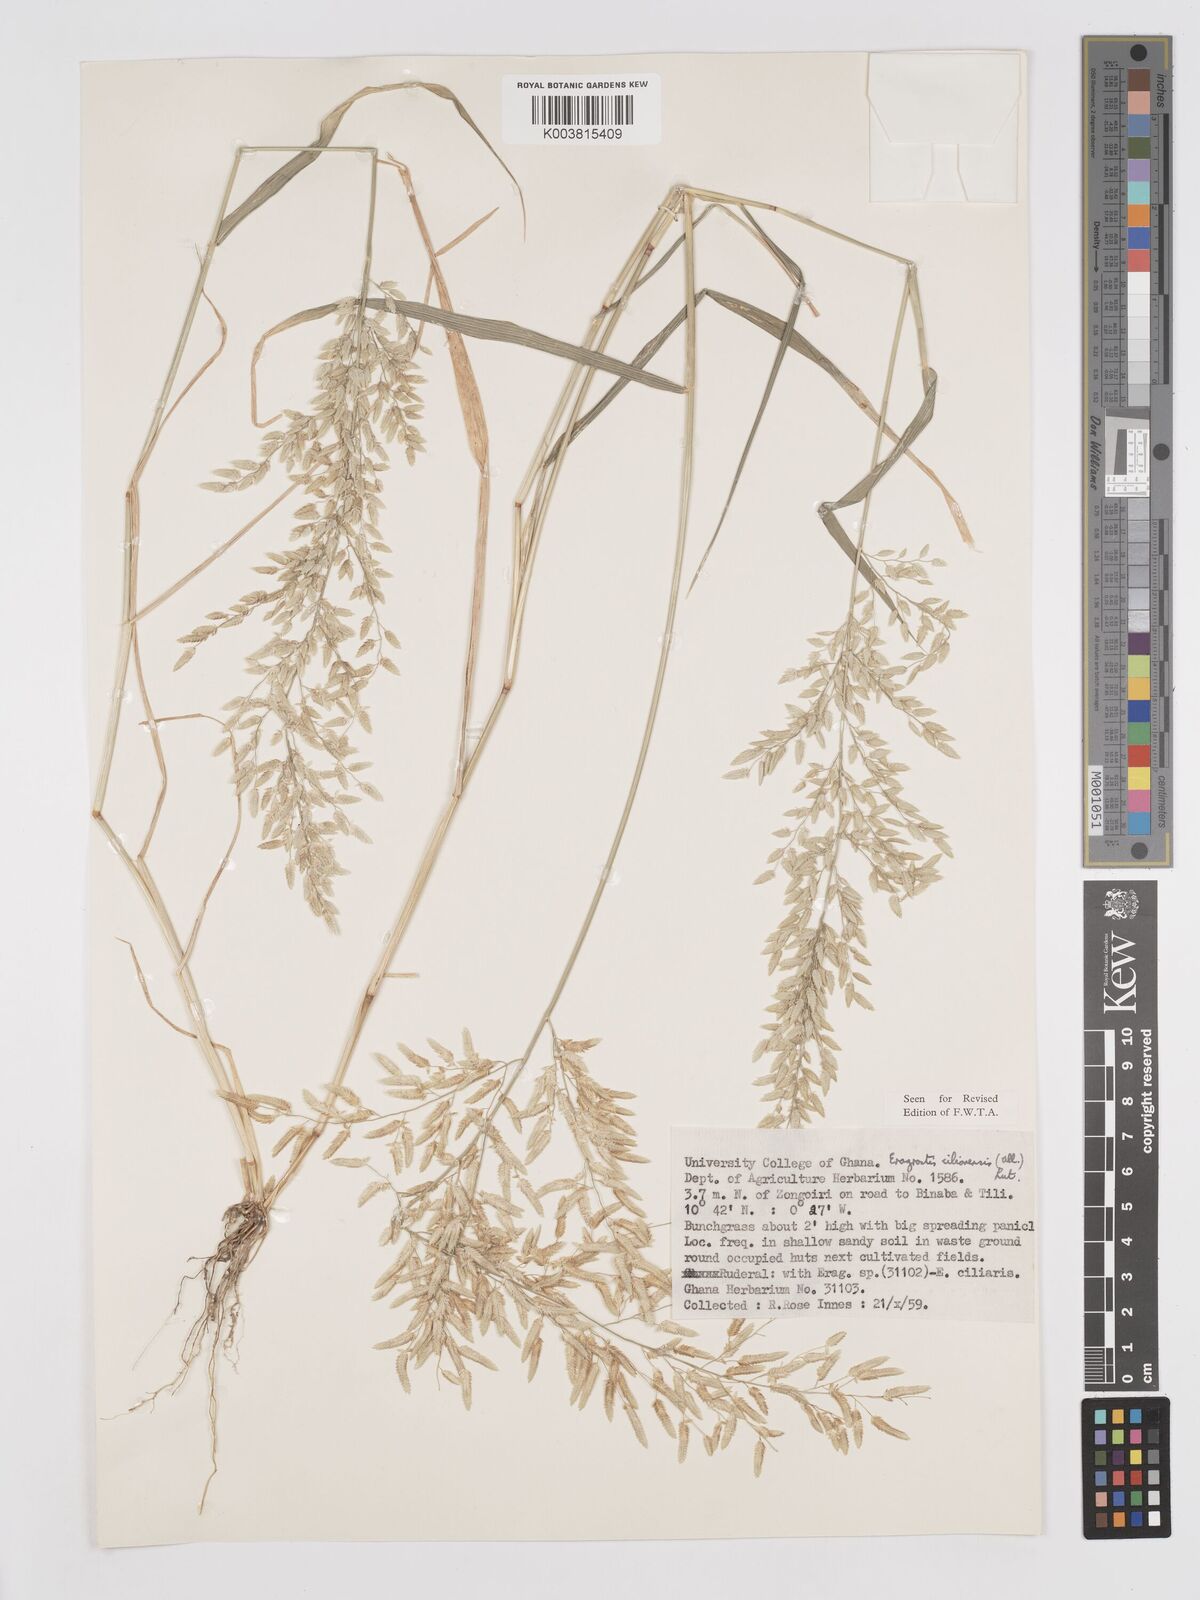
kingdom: Plantae
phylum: Tracheophyta
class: Liliopsida
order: Poales
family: Poaceae
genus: Eragrostis
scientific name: Eragrostis cilianensis
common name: Stinkgrass
